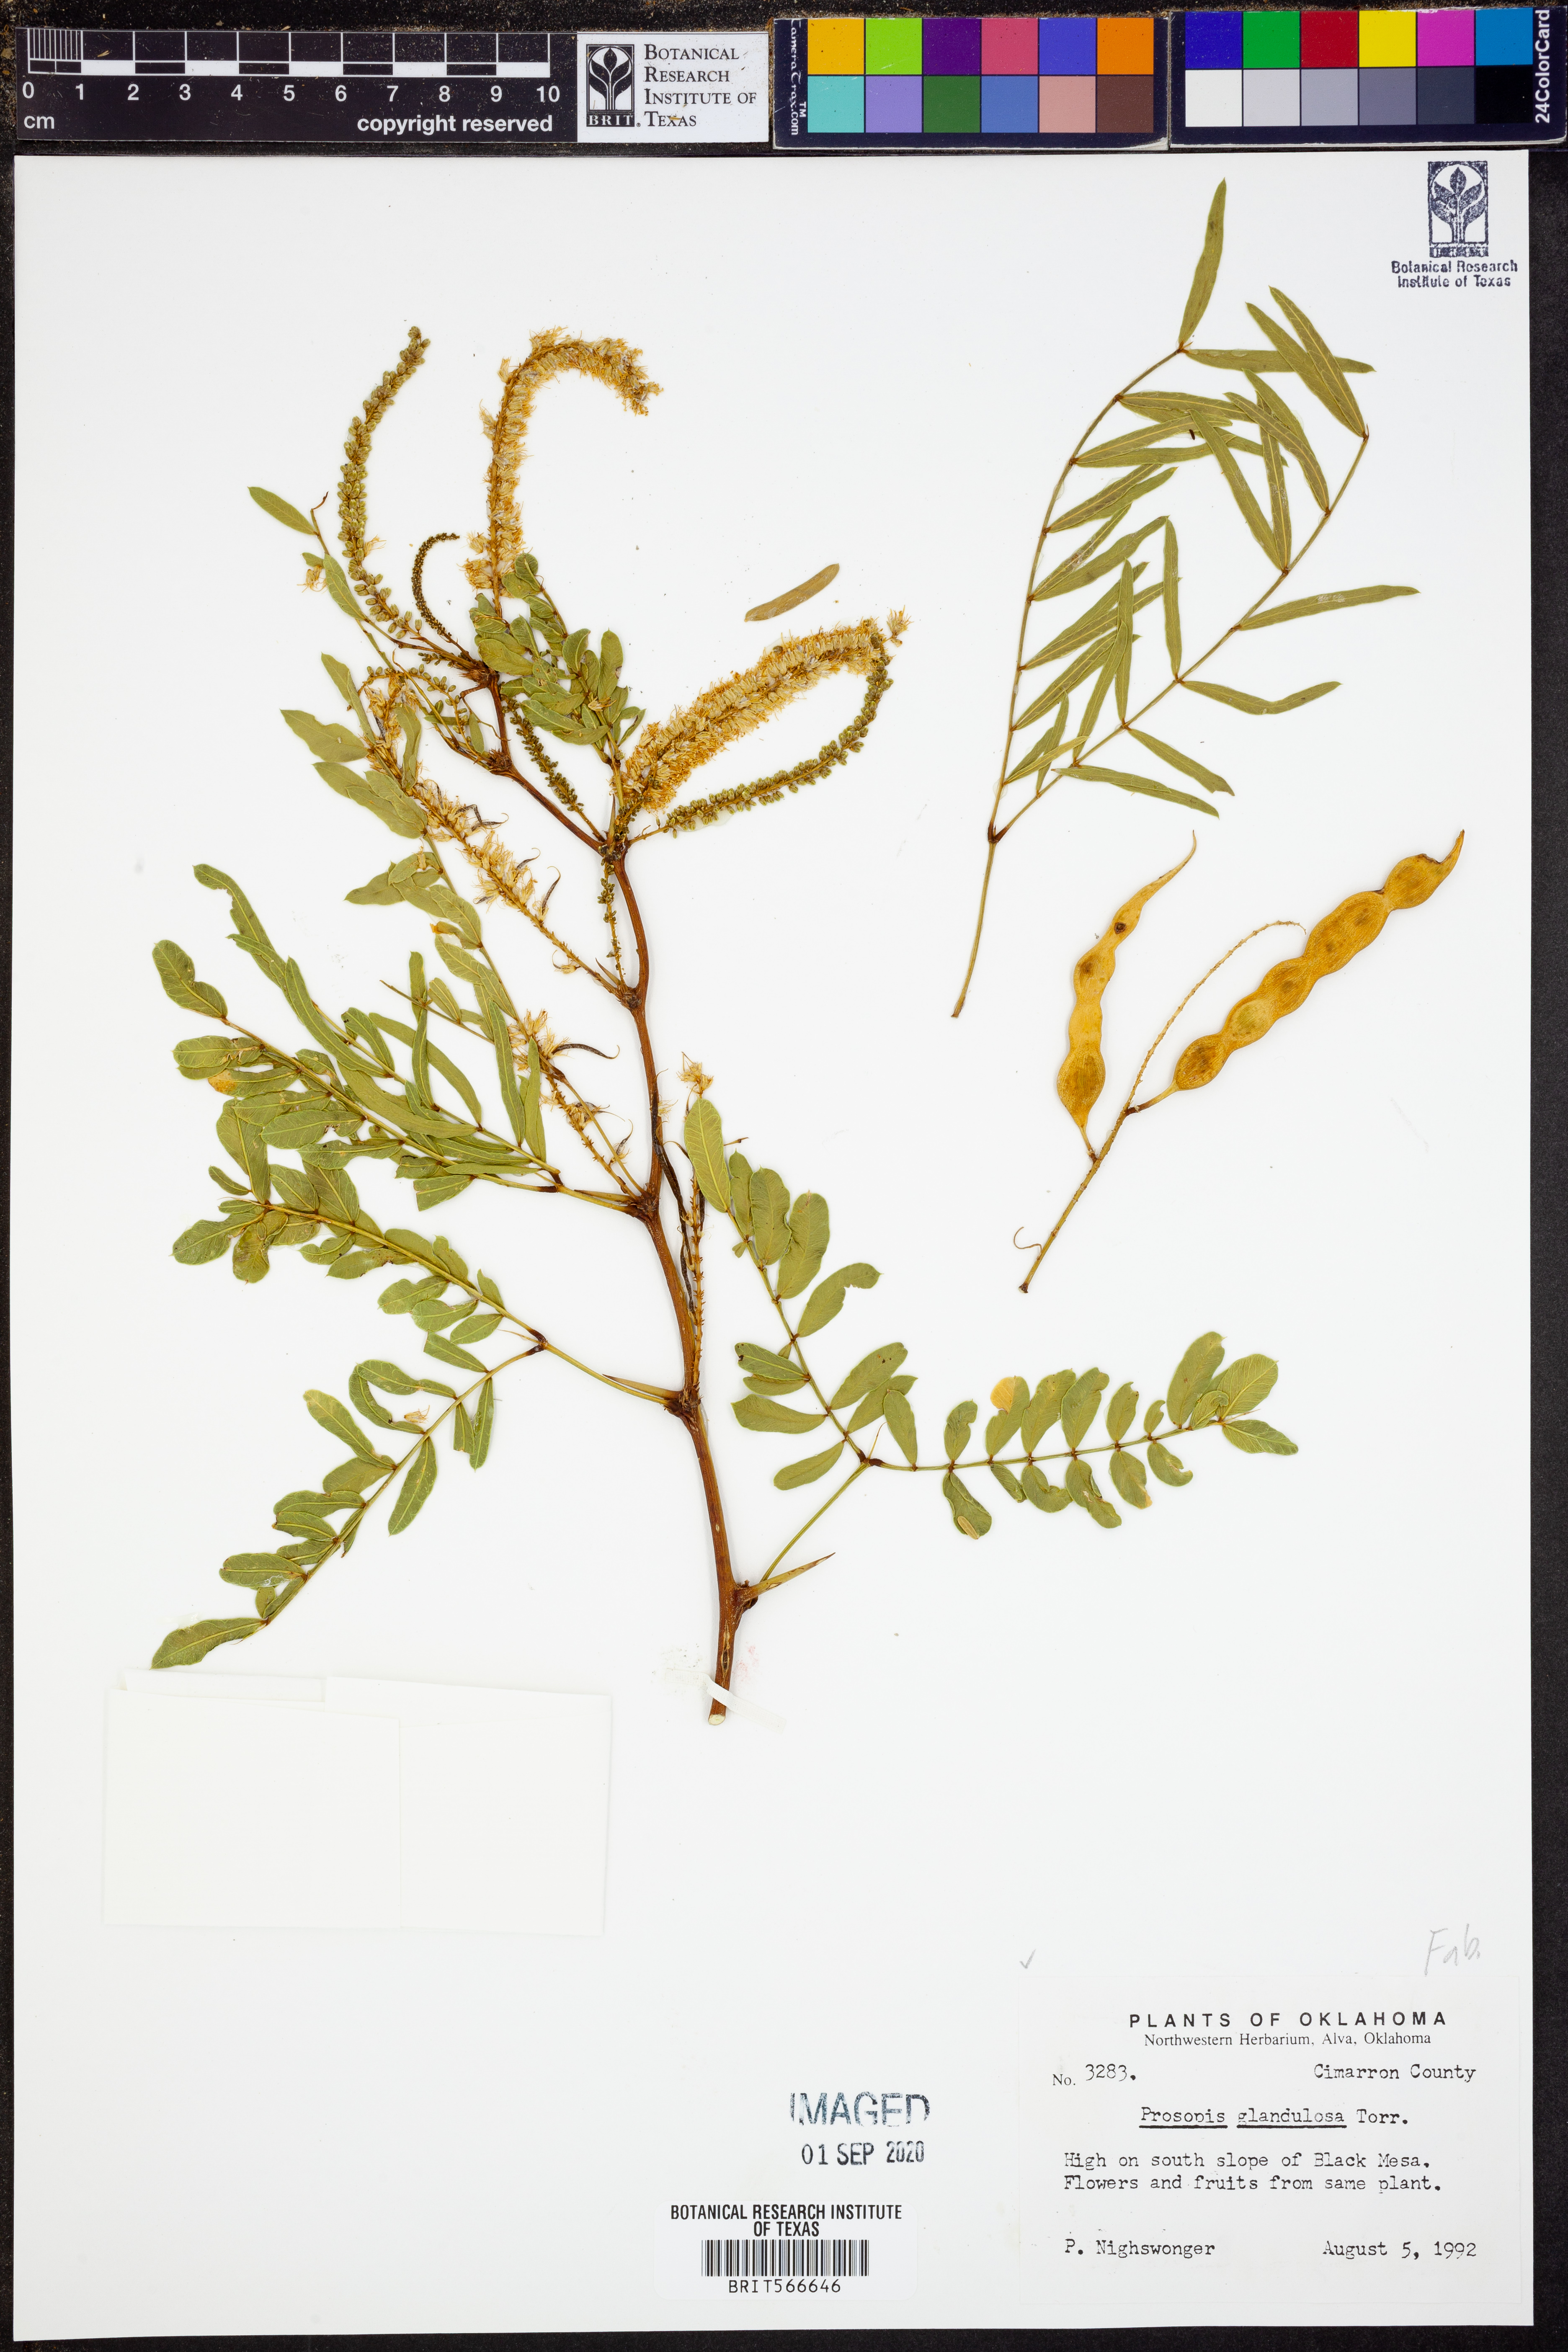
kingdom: Plantae
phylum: Tracheophyta
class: Magnoliopsida
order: Fabales
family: Fabaceae
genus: Prosopis
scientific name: Prosopis glandulosa
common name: Honey mesquite
